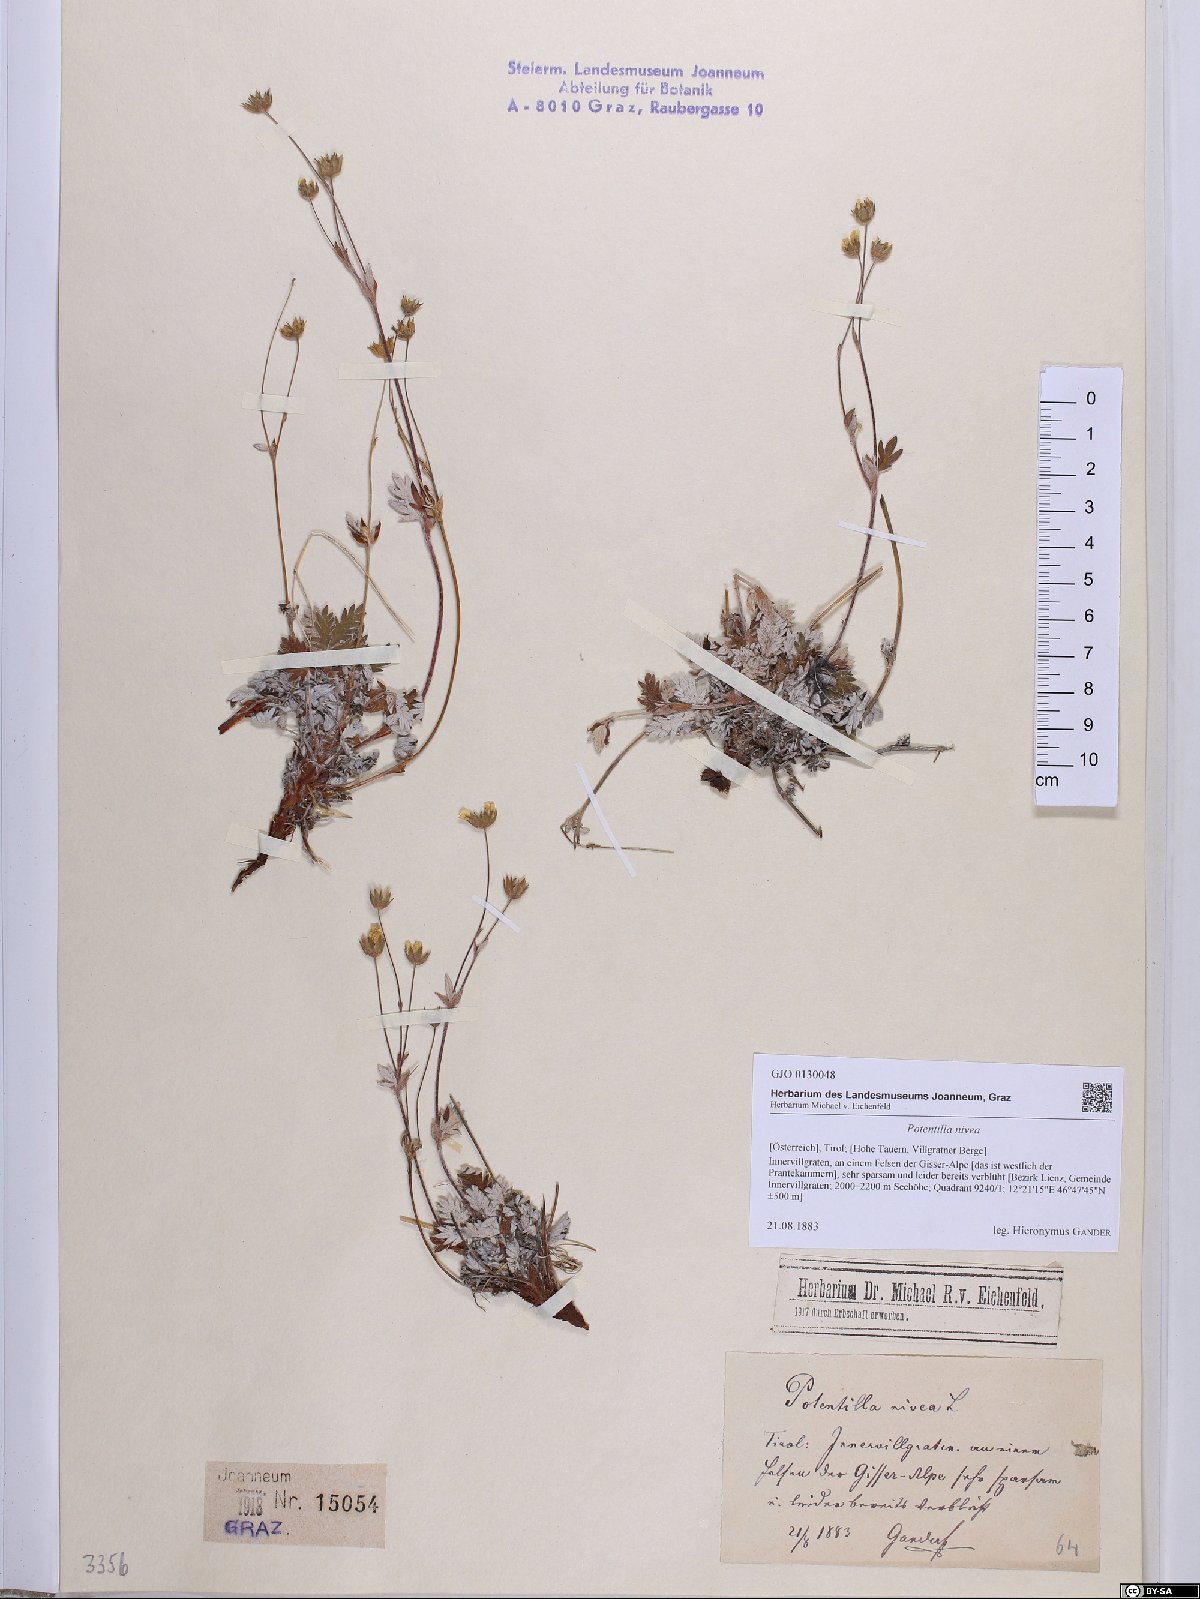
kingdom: Plantae
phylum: Tracheophyta
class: Magnoliopsida
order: Rosales
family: Rosaceae
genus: Potentilla
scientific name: Potentilla nivea
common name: Snow cinquefoil
